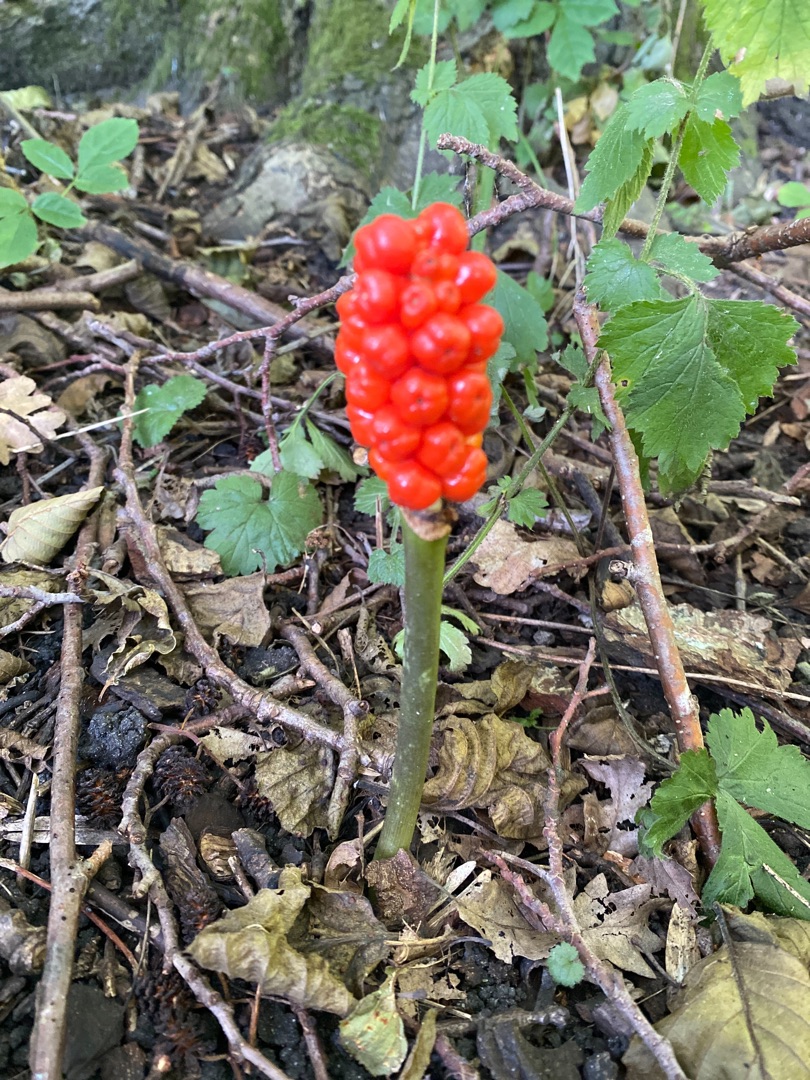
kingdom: Plantae
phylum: Tracheophyta
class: Liliopsida
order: Alismatales
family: Araceae
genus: Arum
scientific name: Arum
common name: Arumslægten
